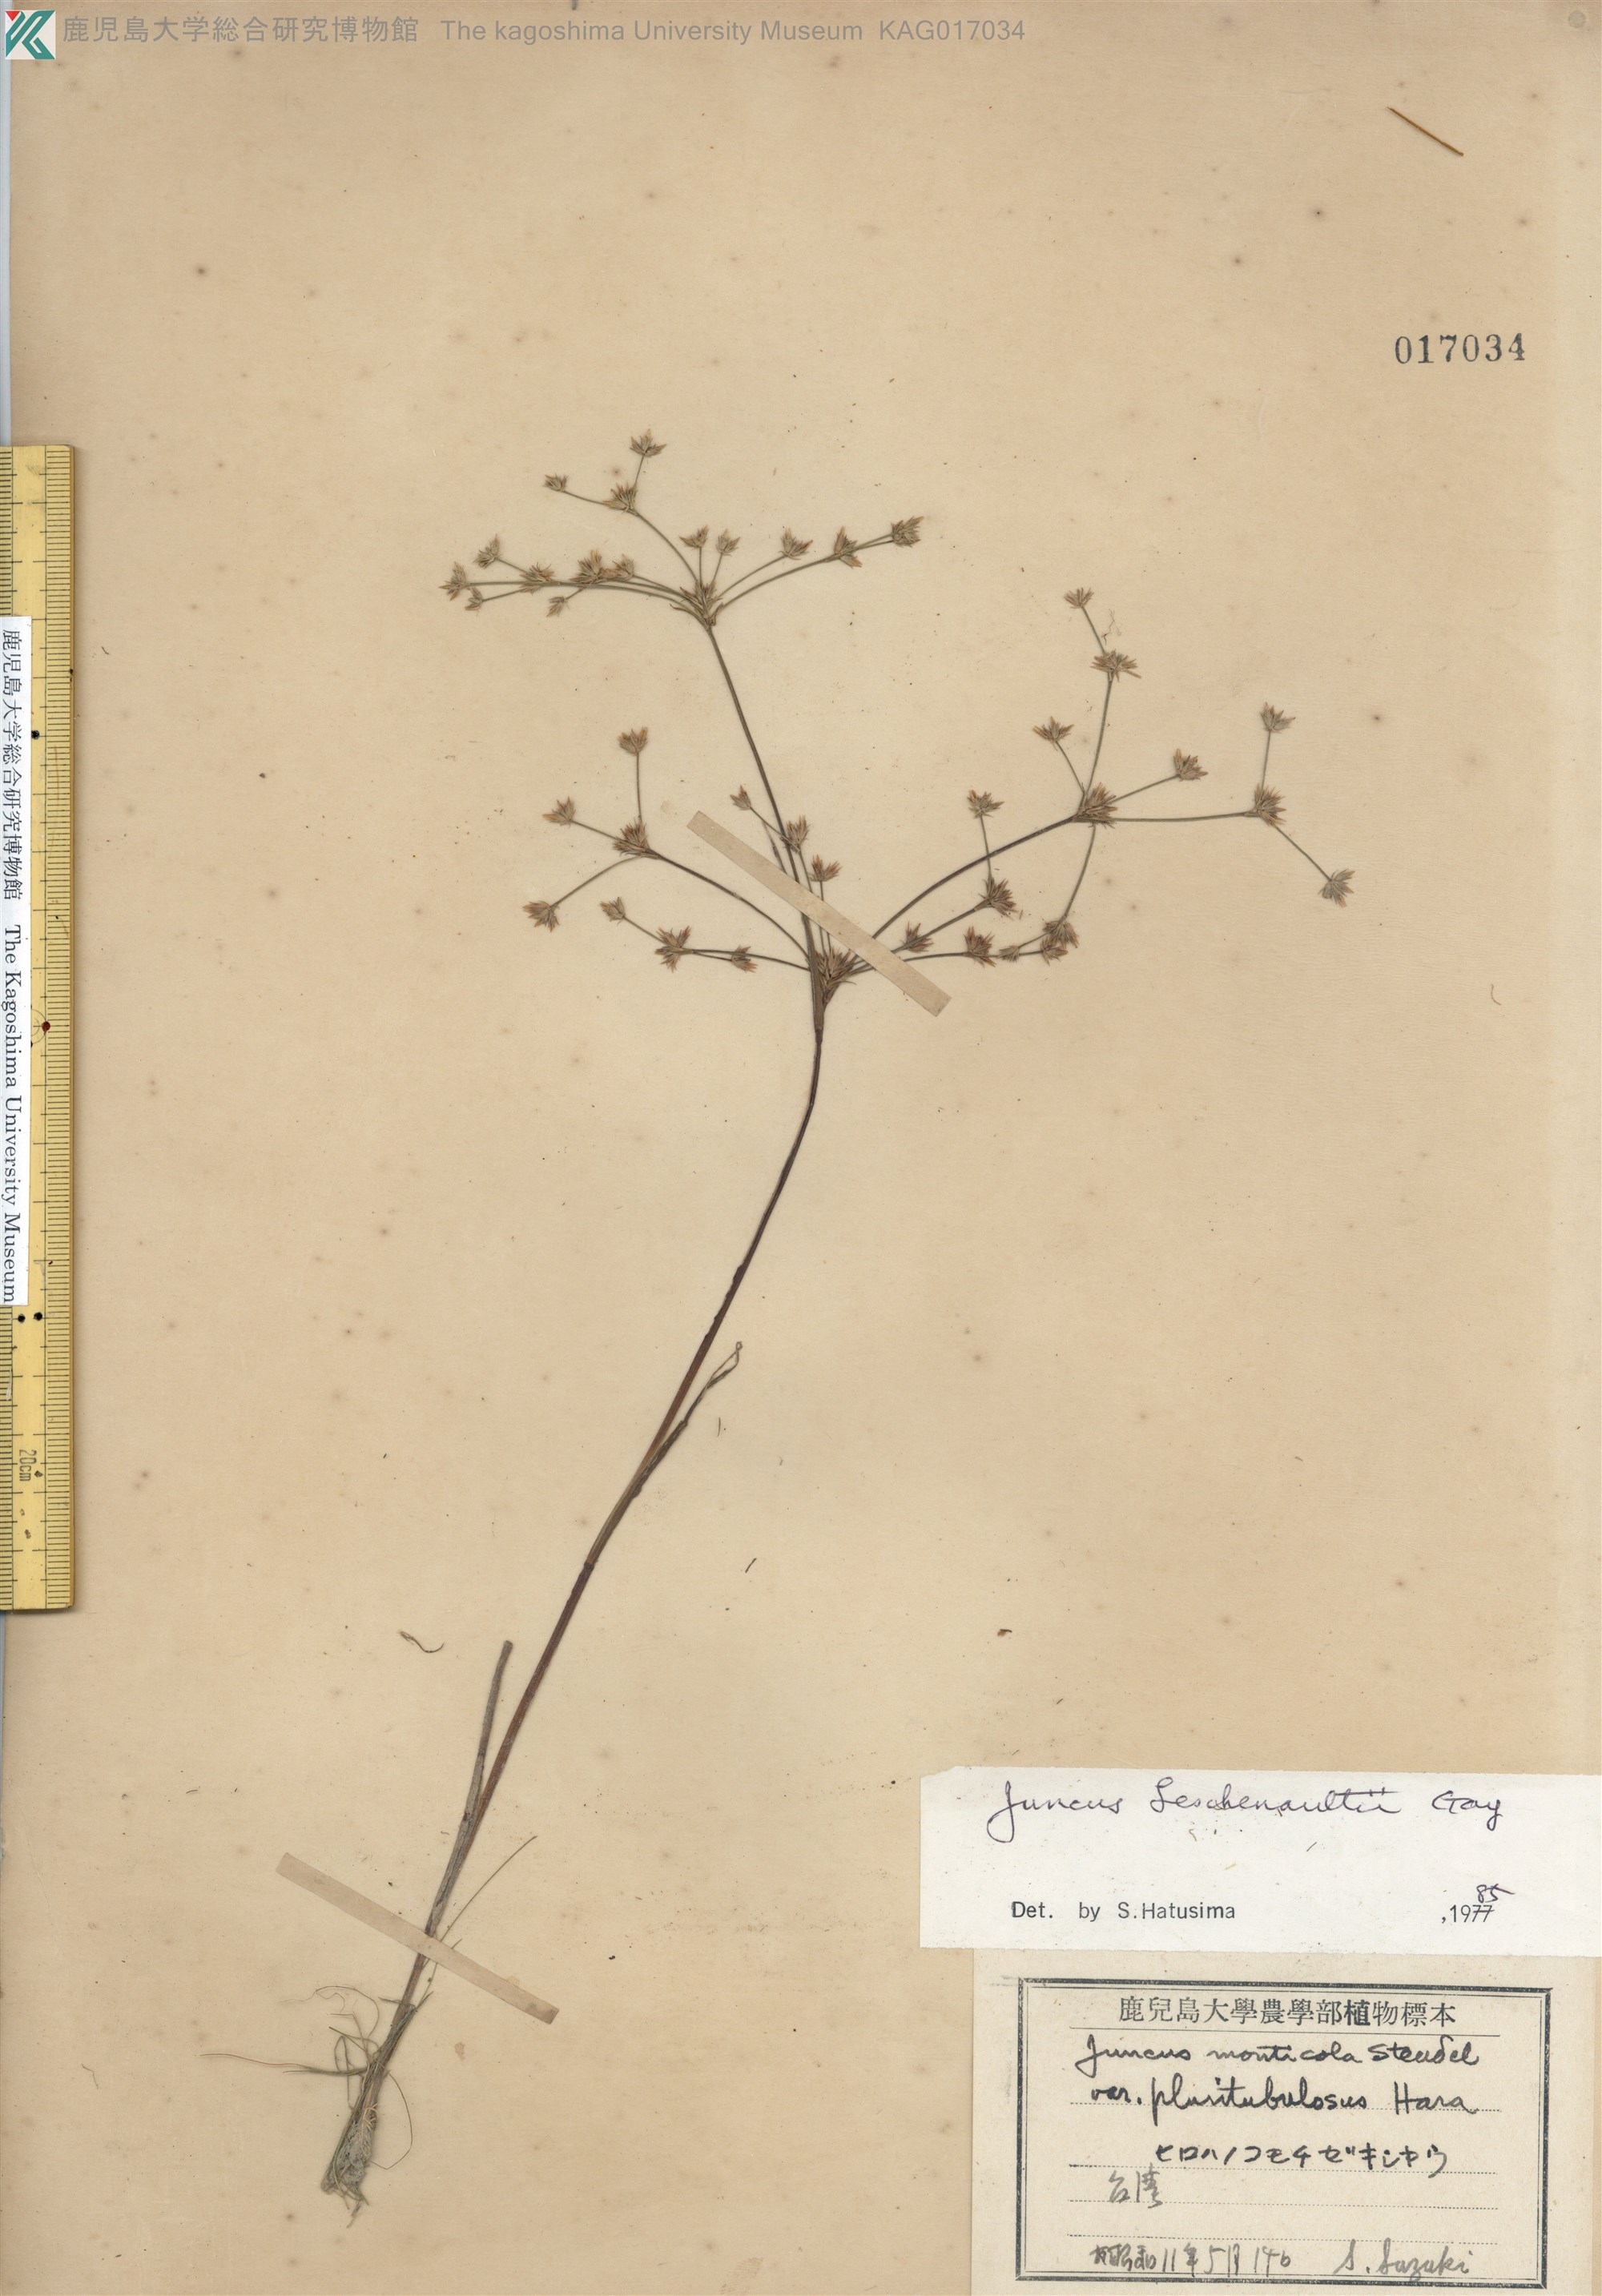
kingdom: Plantae
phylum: Tracheophyta
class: Liliopsida
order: Poales
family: Juncaceae
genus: Juncus
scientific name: Juncus prismatocarpus
